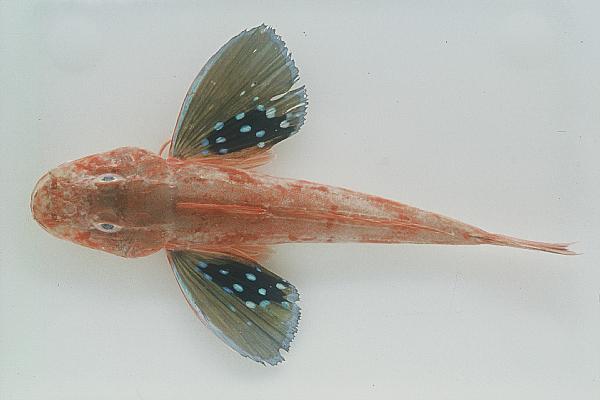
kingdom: Animalia
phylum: Chordata
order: Scorpaeniformes
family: Triglidae
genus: Chelidonichthys
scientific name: Chelidonichthys kumu
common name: Bluefin gurnard
